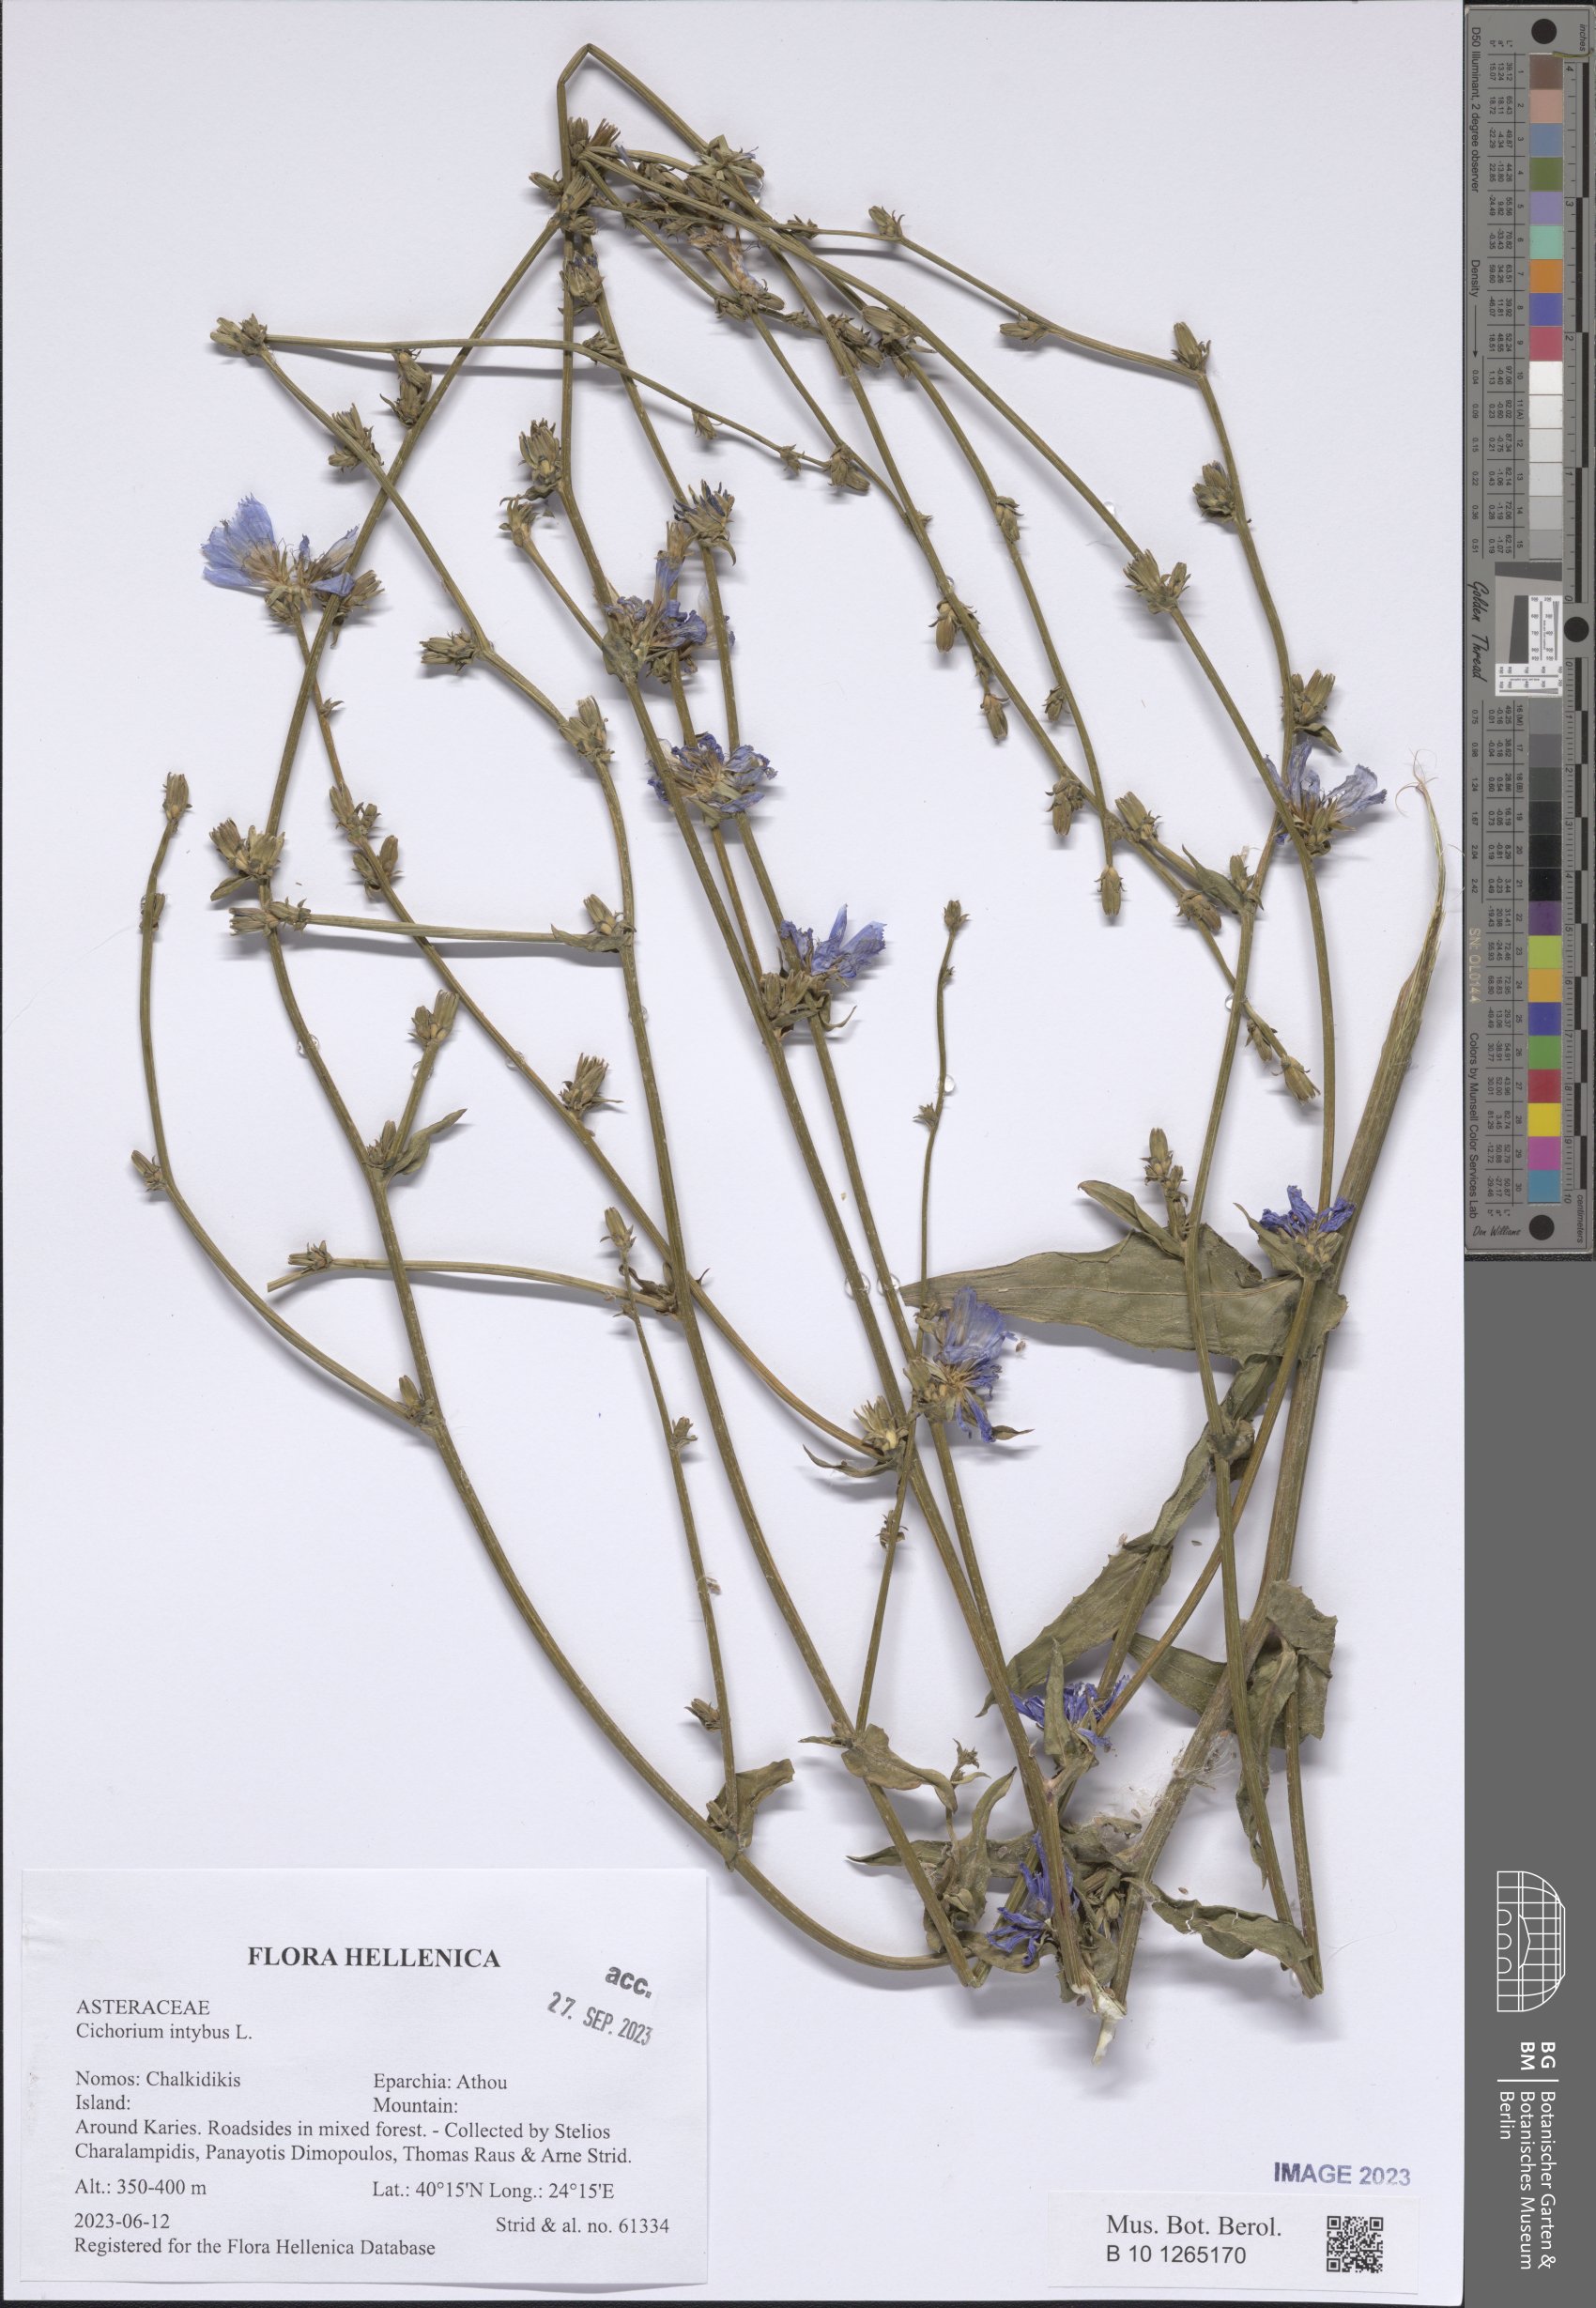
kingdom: Plantae
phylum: Tracheophyta
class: Magnoliopsida
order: Asterales
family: Asteraceae
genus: Cichorium
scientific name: Cichorium intybus
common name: Chicory
